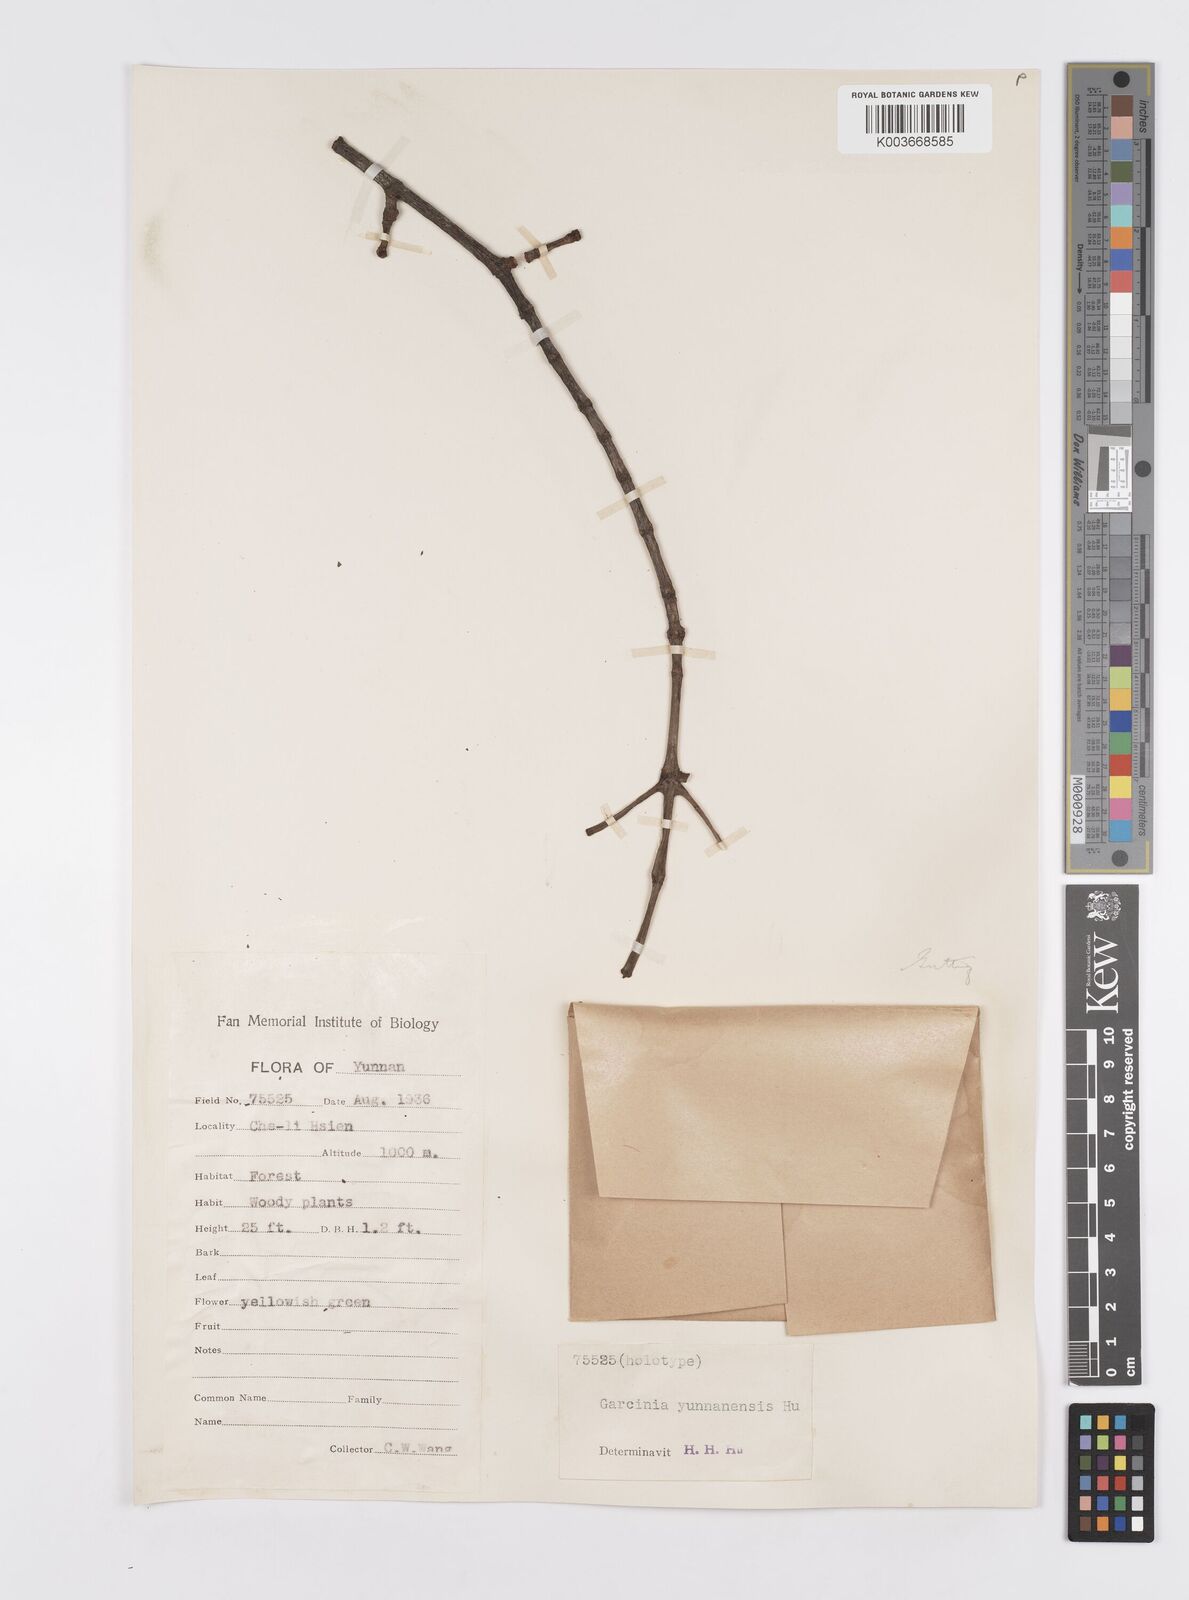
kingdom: Plantae
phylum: Tracheophyta
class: Magnoliopsida
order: Malpighiales
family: Clusiaceae
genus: Garcinia
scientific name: Garcinia yunnanensis
